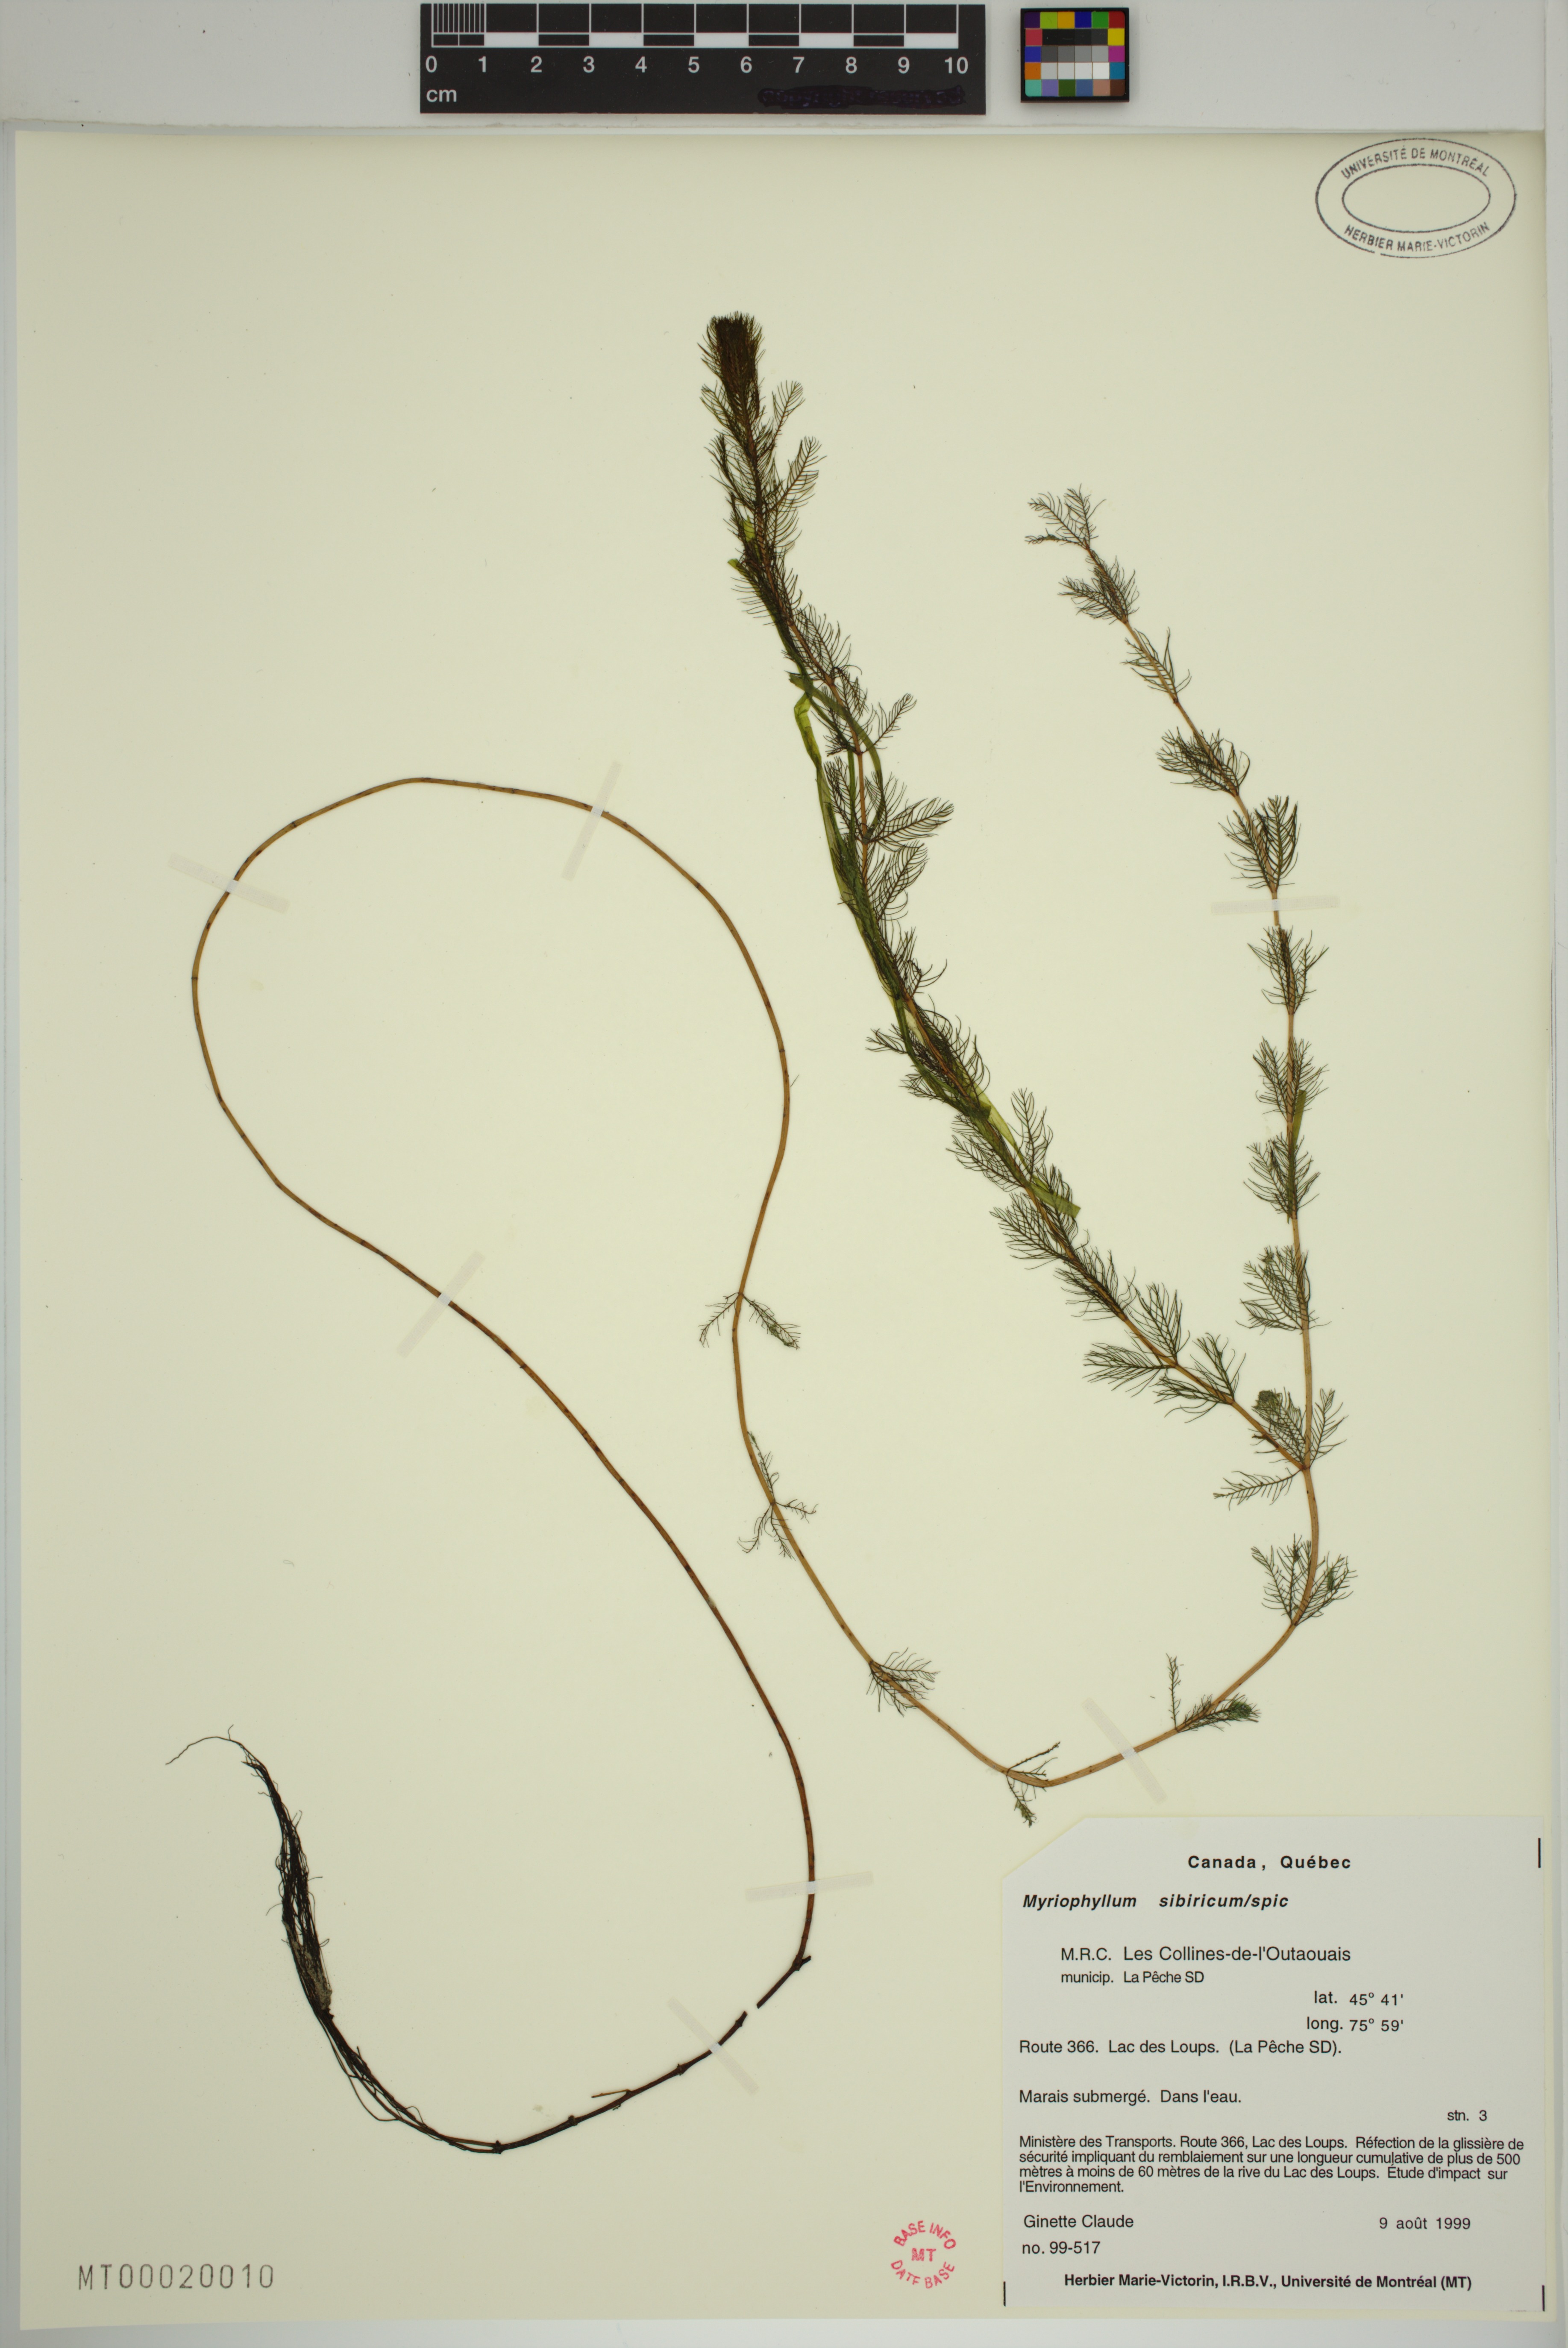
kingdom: Plantae
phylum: Tracheophyta
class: Magnoliopsida
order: Saxifragales
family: Haloragaceae
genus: Myriophyllum
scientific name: Myriophyllum sibiricum
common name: Siberian water-milfoil
